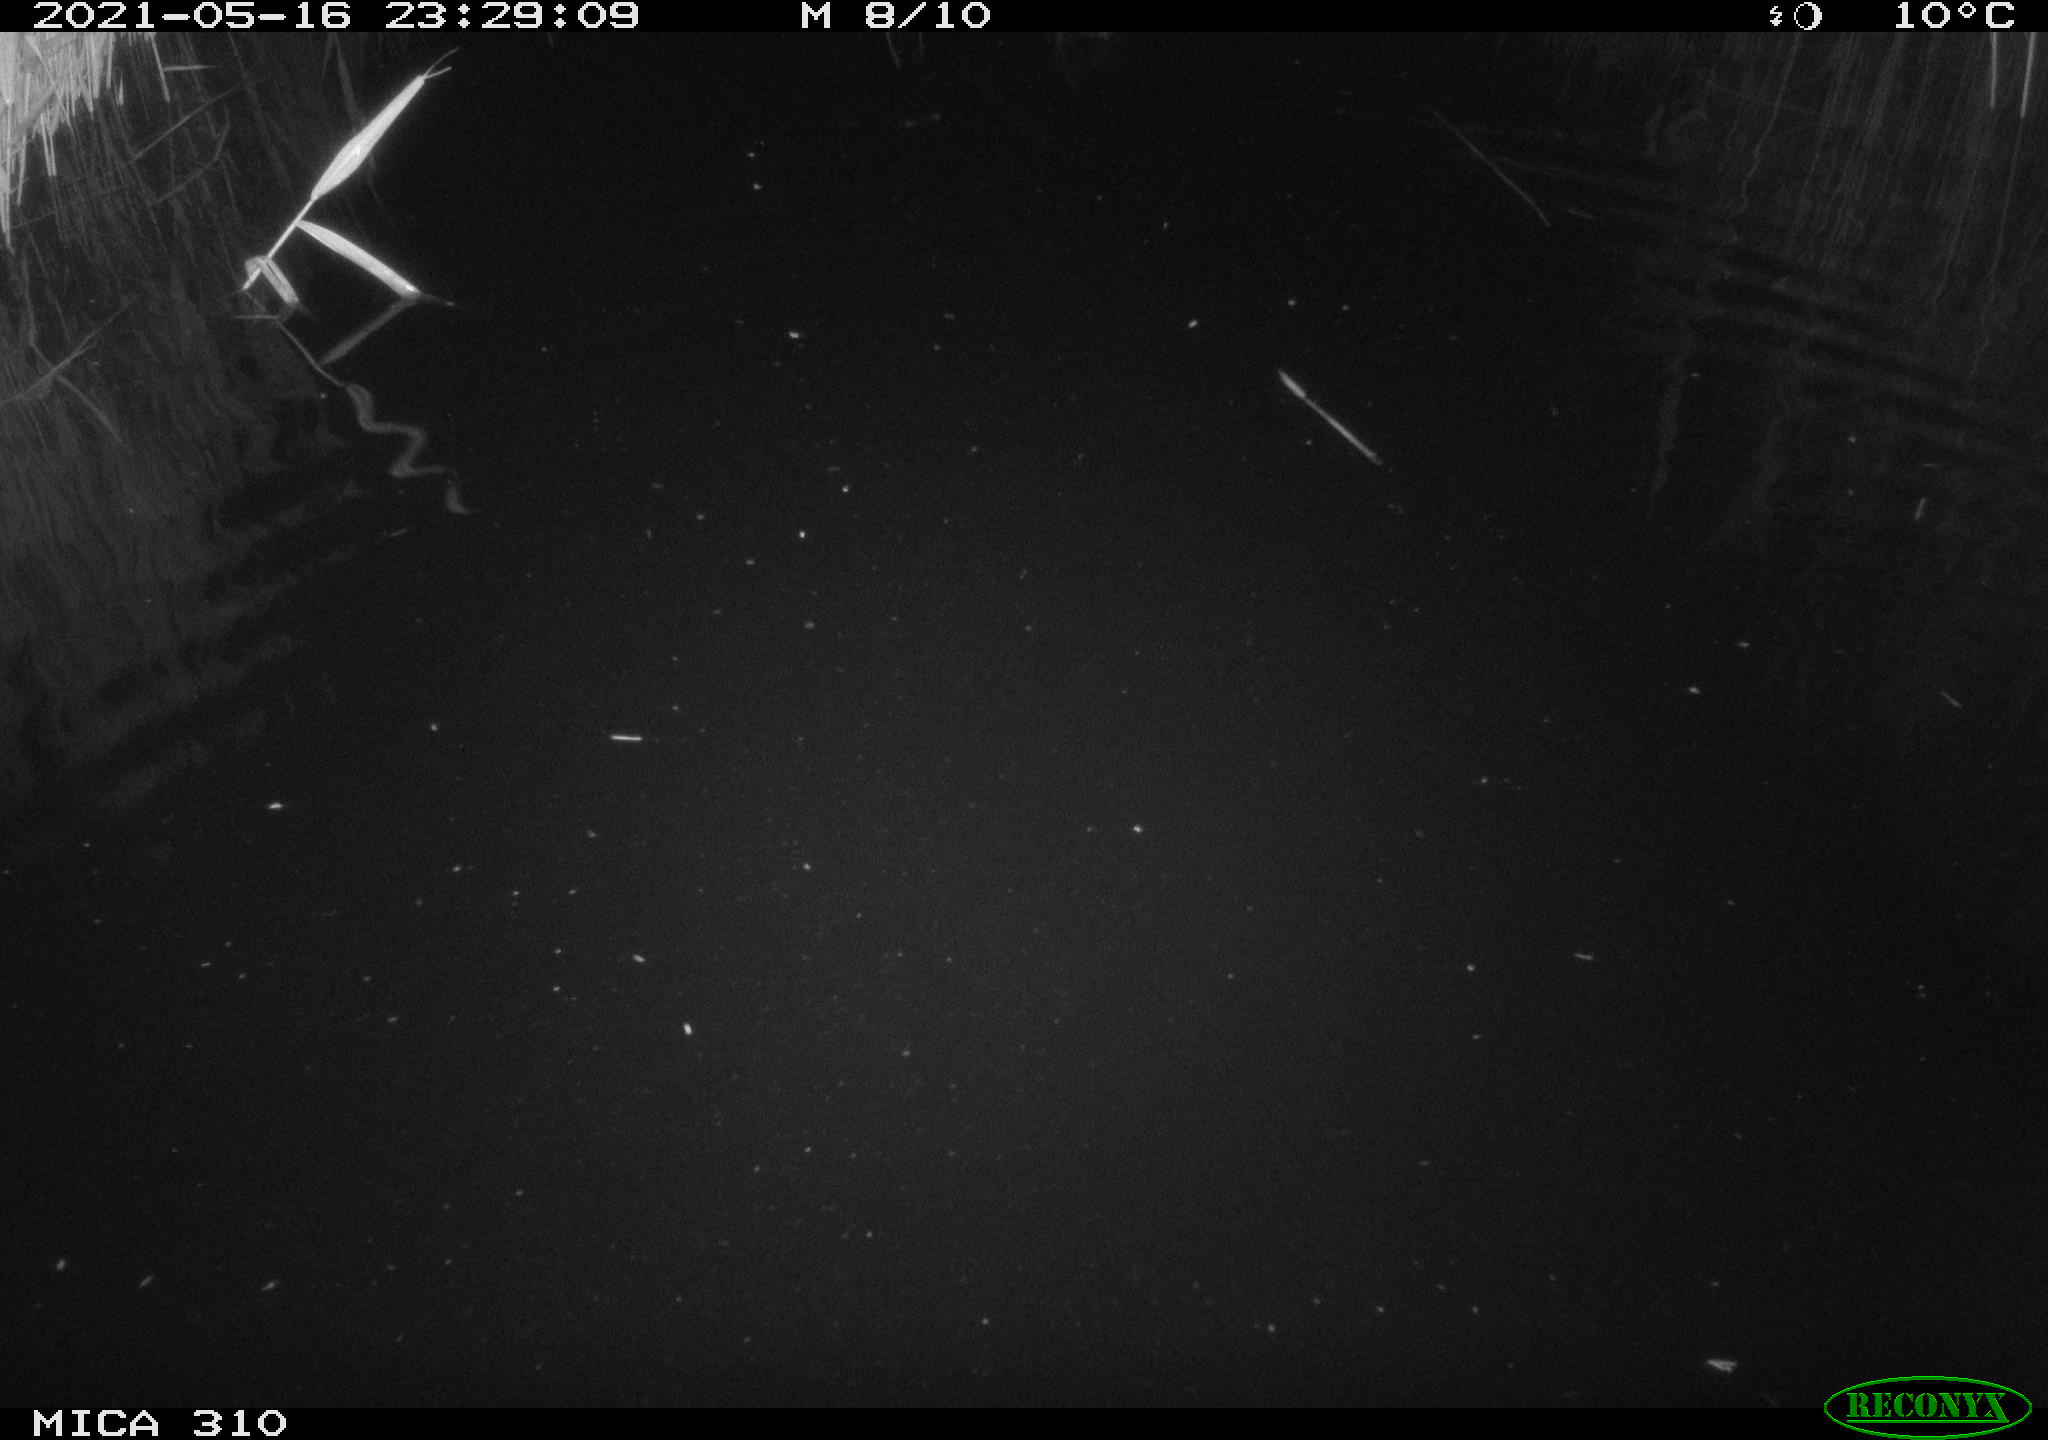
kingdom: Animalia
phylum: Chordata
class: Aves
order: Gruiformes
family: Rallidae
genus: Fulica
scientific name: Fulica atra
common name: Eurasian coot
